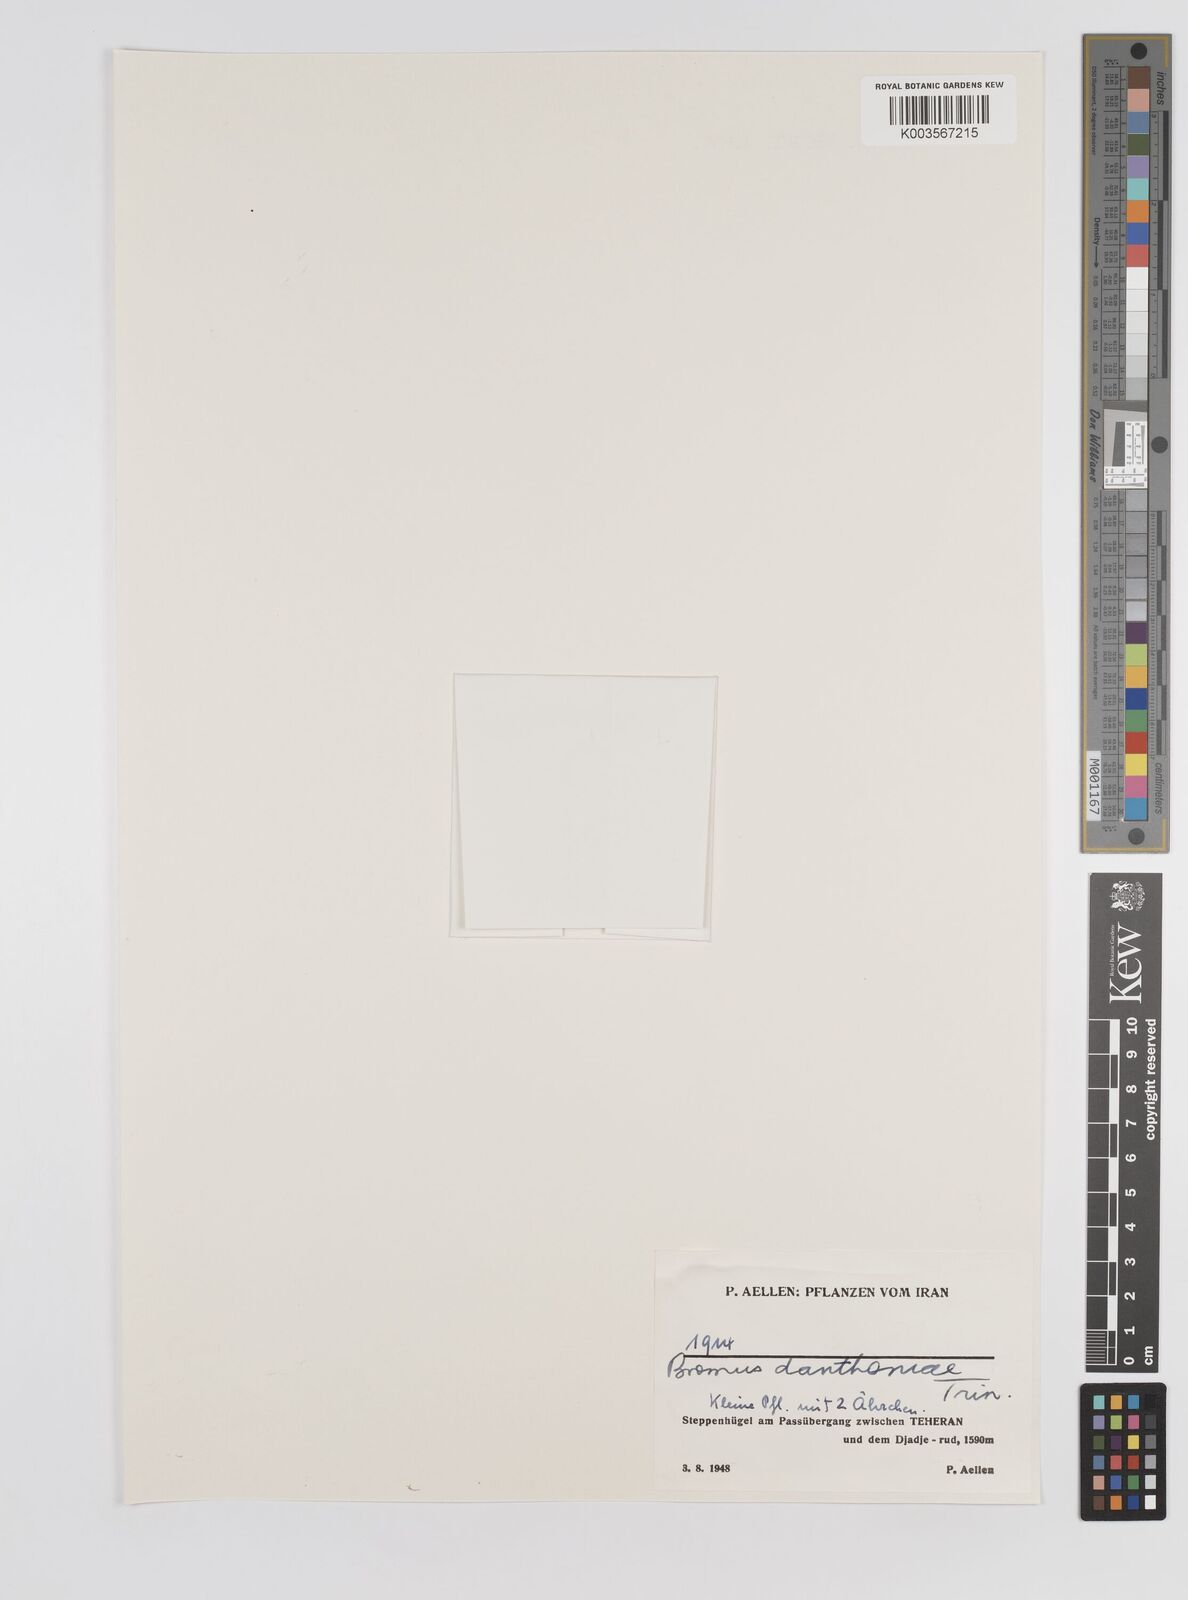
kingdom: Plantae
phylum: Tracheophyta
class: Liliopsida
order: Poales
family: Poaceae
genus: Bromus
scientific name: Bromus danthoniae
